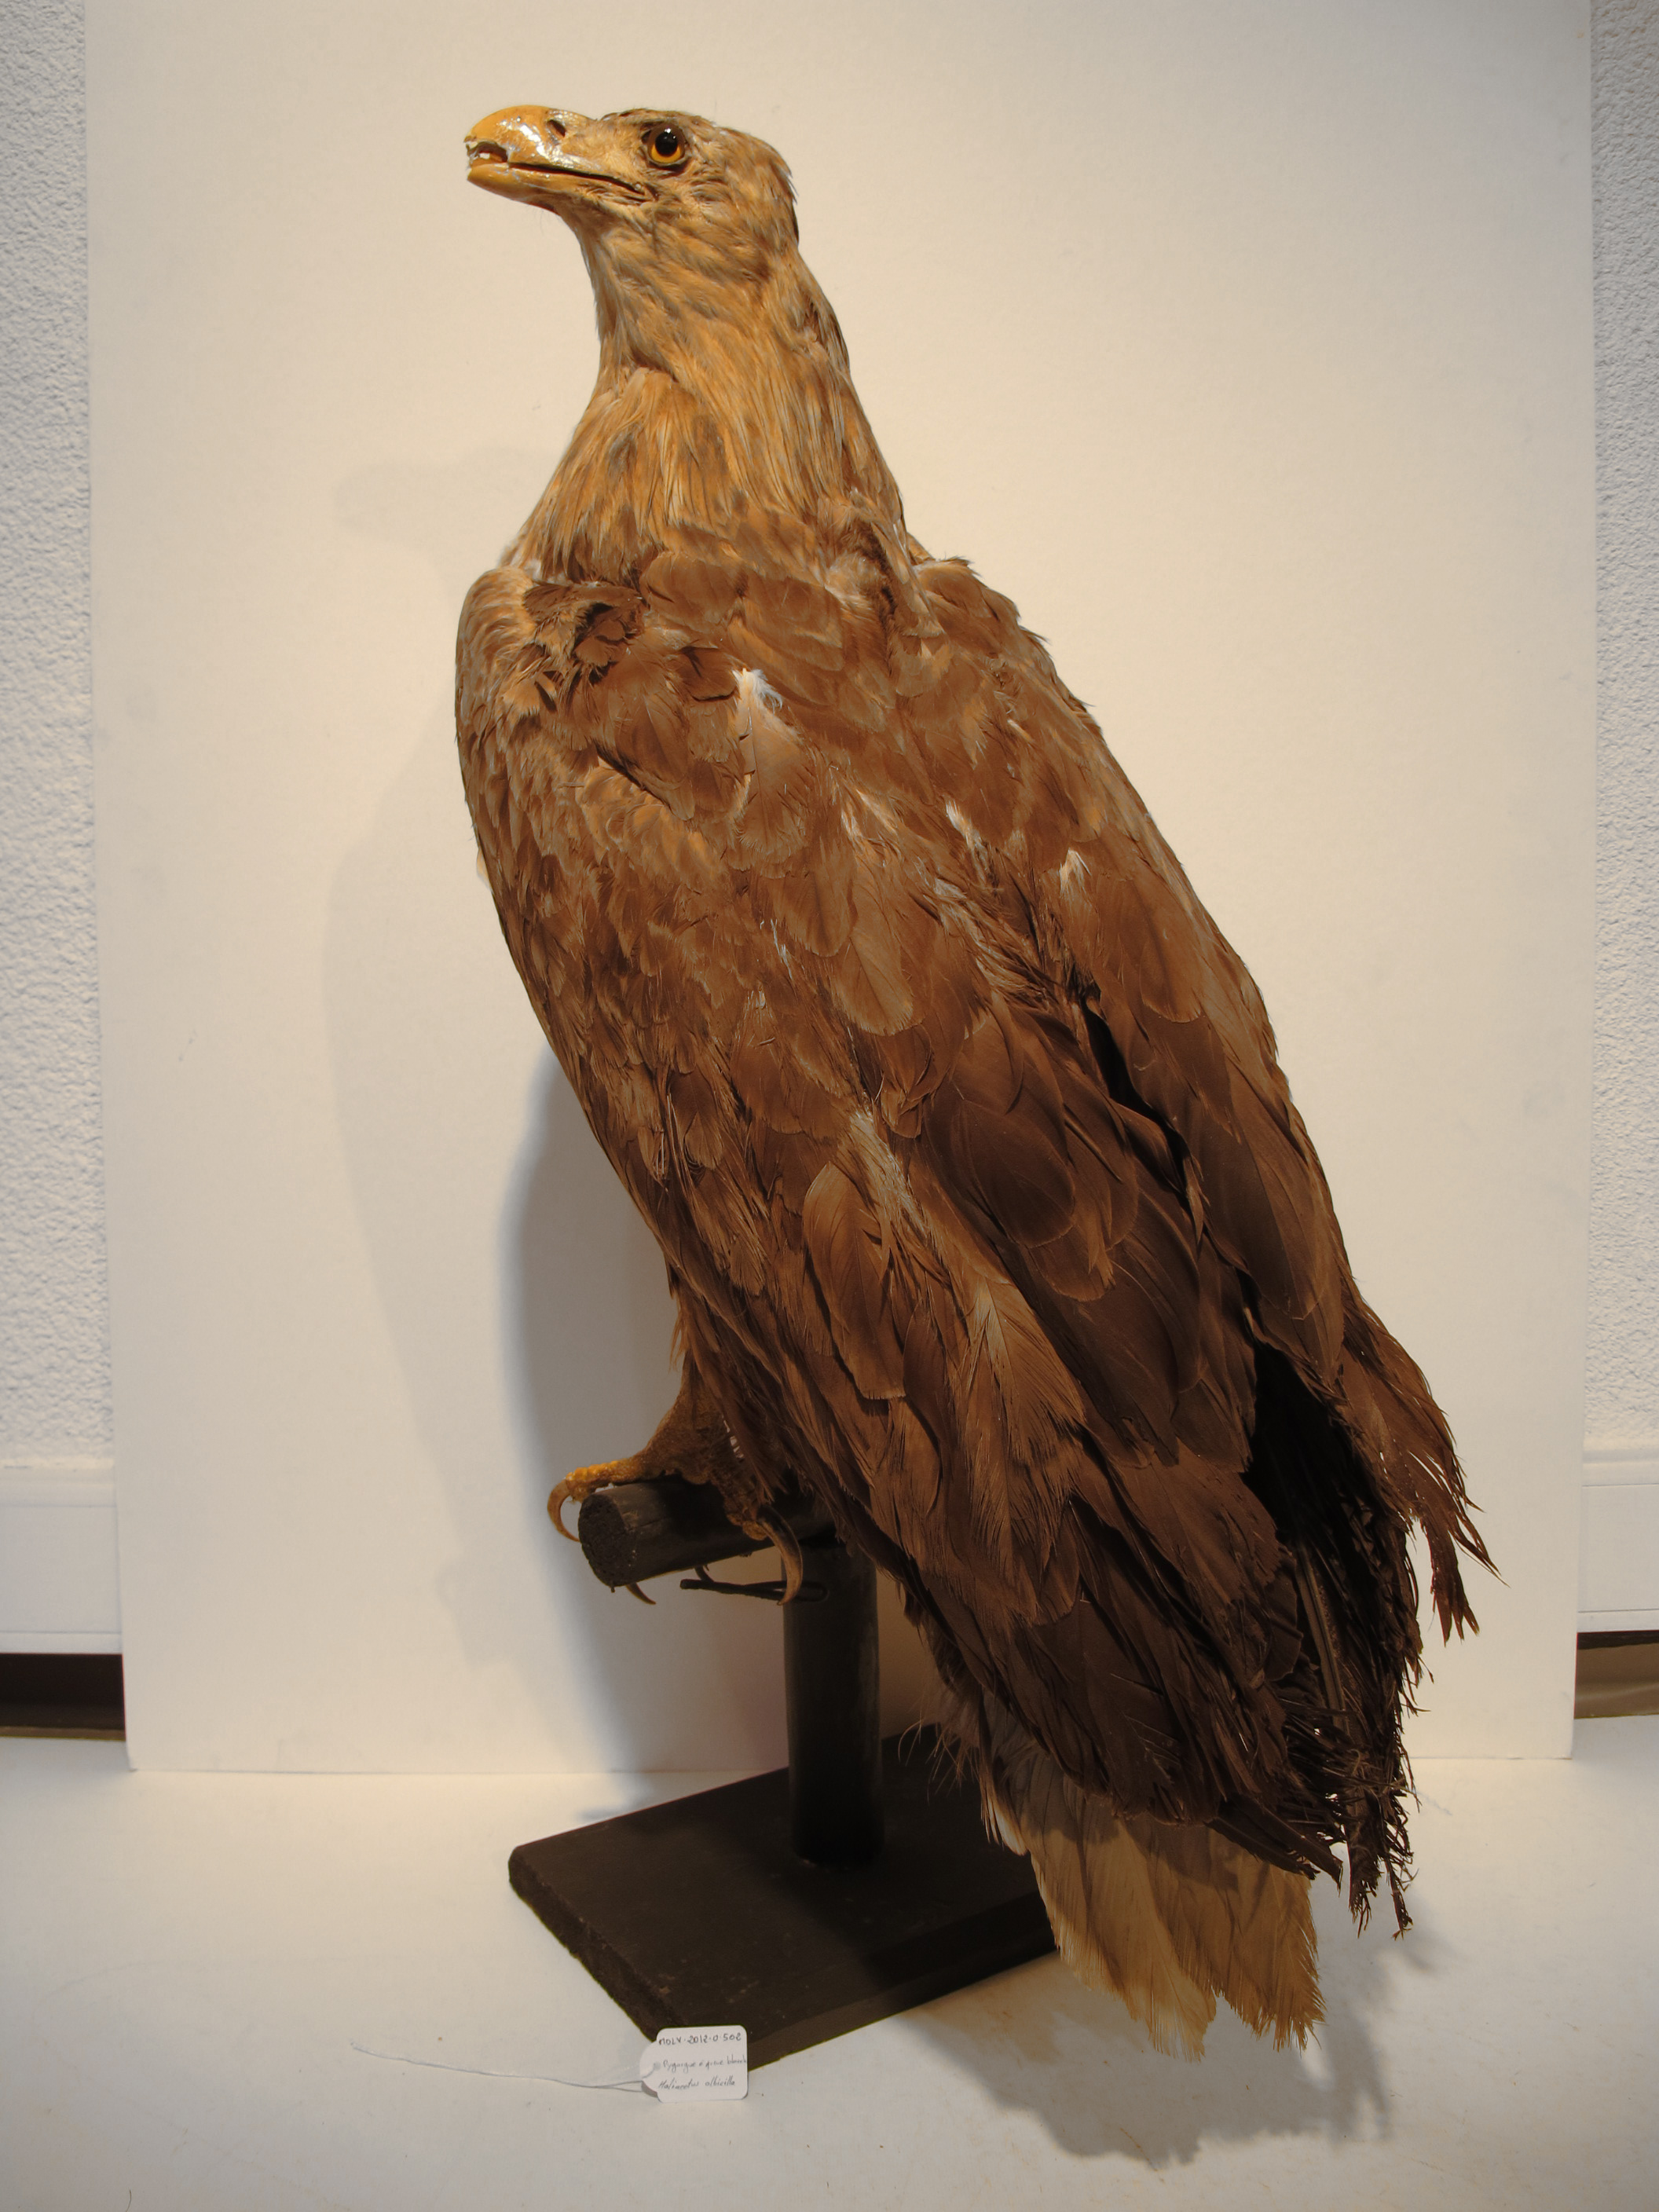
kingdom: Animalia
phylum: Chordata
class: Aves
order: Accipitriformes
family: Accipitridae
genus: Haliaeetus
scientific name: Haliaeetus albicilla
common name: White-tailed Sea-eagle
